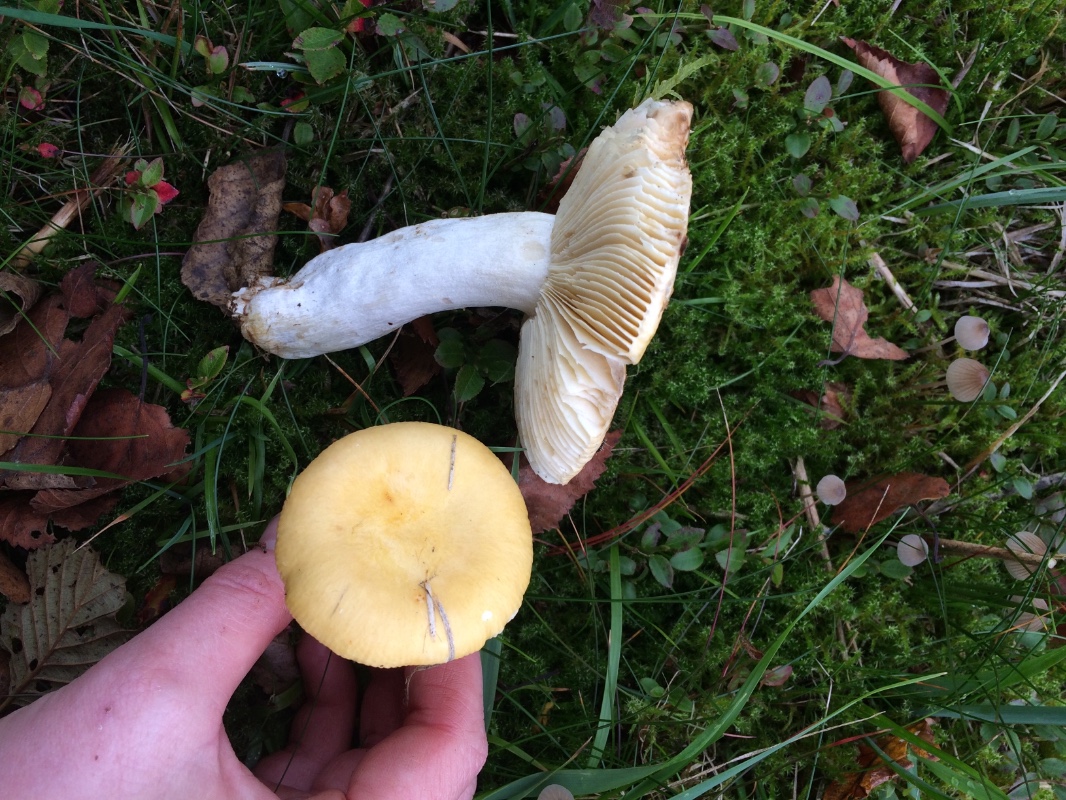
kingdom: Fungi
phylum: Basidiomycota
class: Agaricomycetes
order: Russulales
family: Russulaceae
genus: Russula
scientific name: Russula claroflava
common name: birke-skørhat
